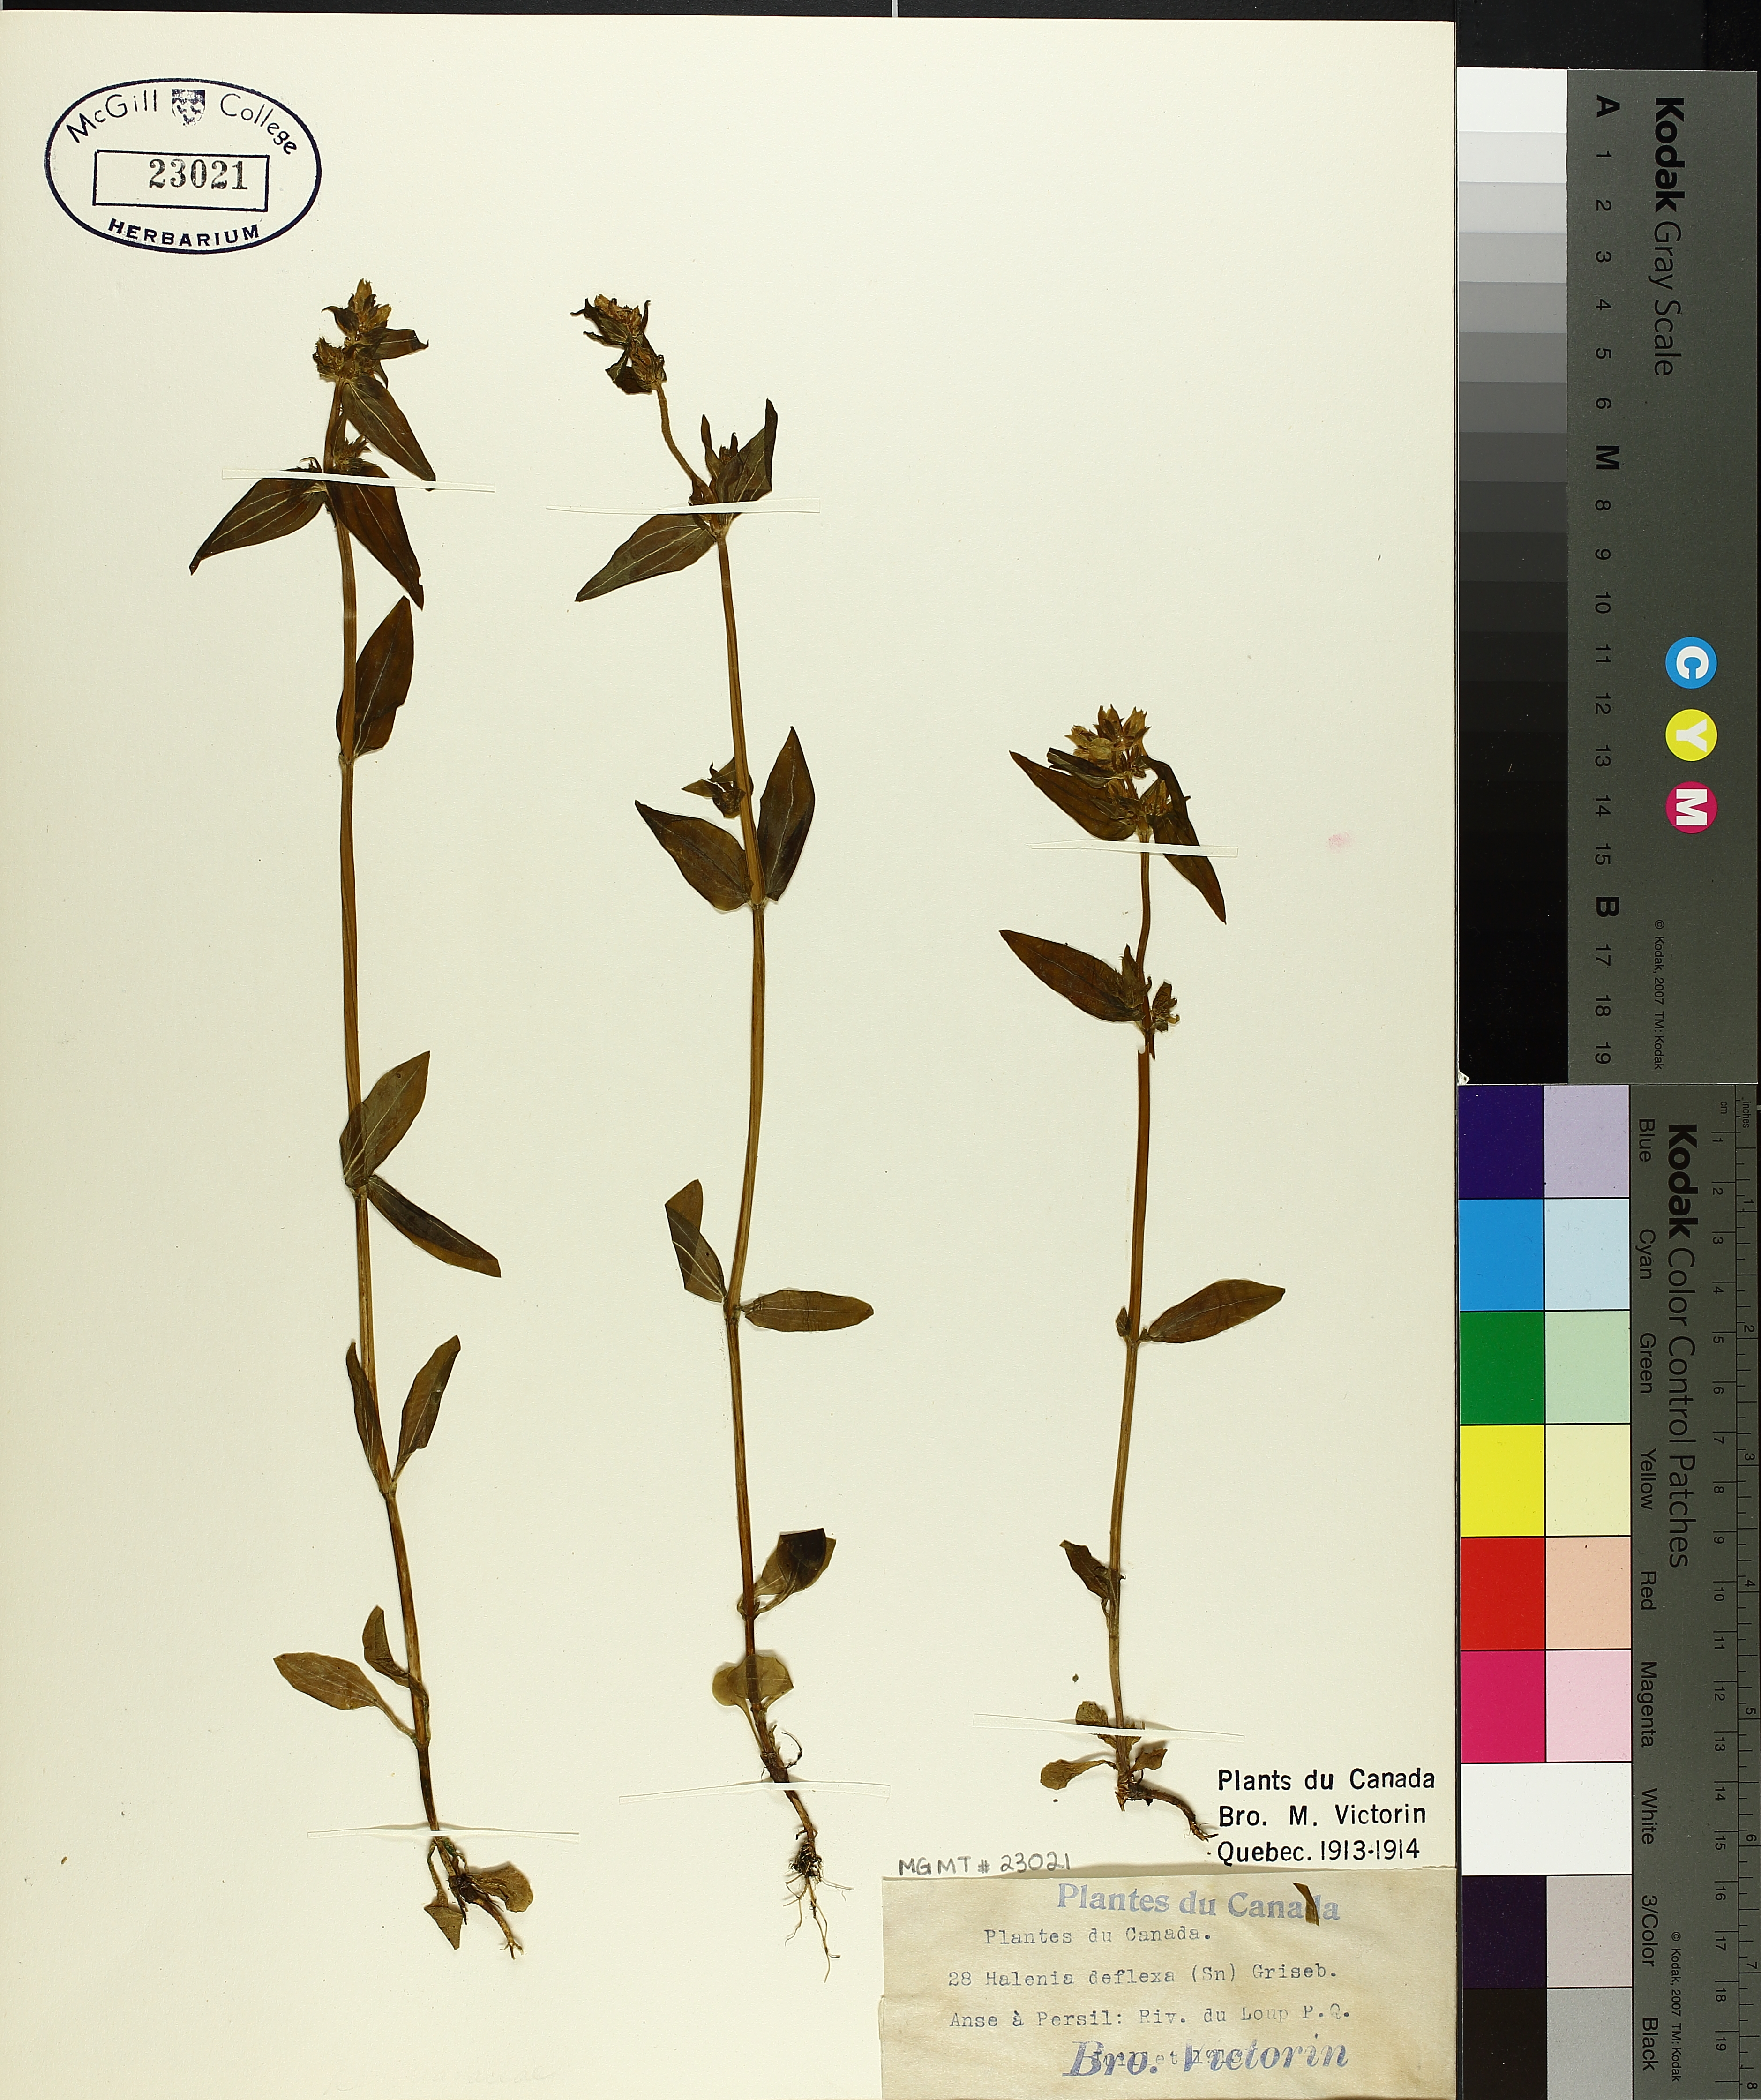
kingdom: Plantae
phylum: Tracheophyta
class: Magnoliopsida
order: Gentianales
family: Gentianaceae
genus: Halenia
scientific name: Halenia deflexa
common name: American spurred gentian
